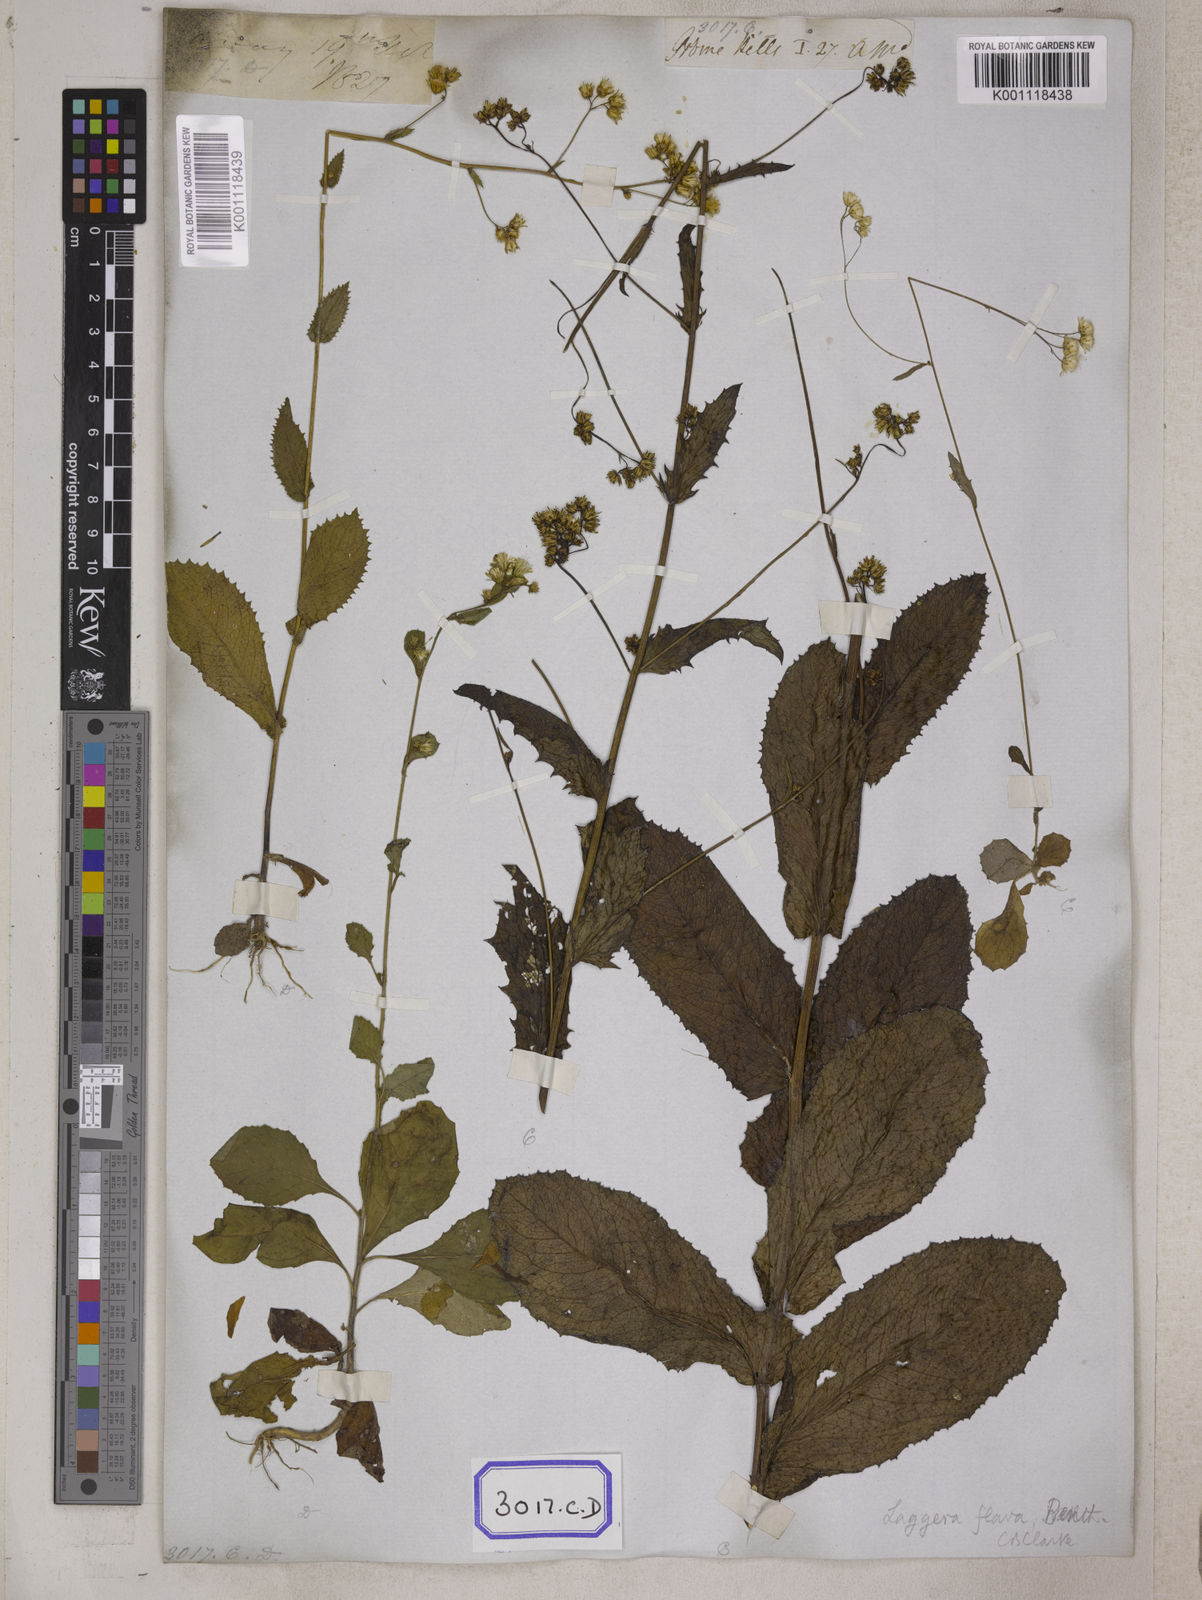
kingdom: Plantae
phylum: Tracheophyta
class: Magnoliopsida
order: Asterales
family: Asteraceae
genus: Blumea
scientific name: Blumea sessiliflora
